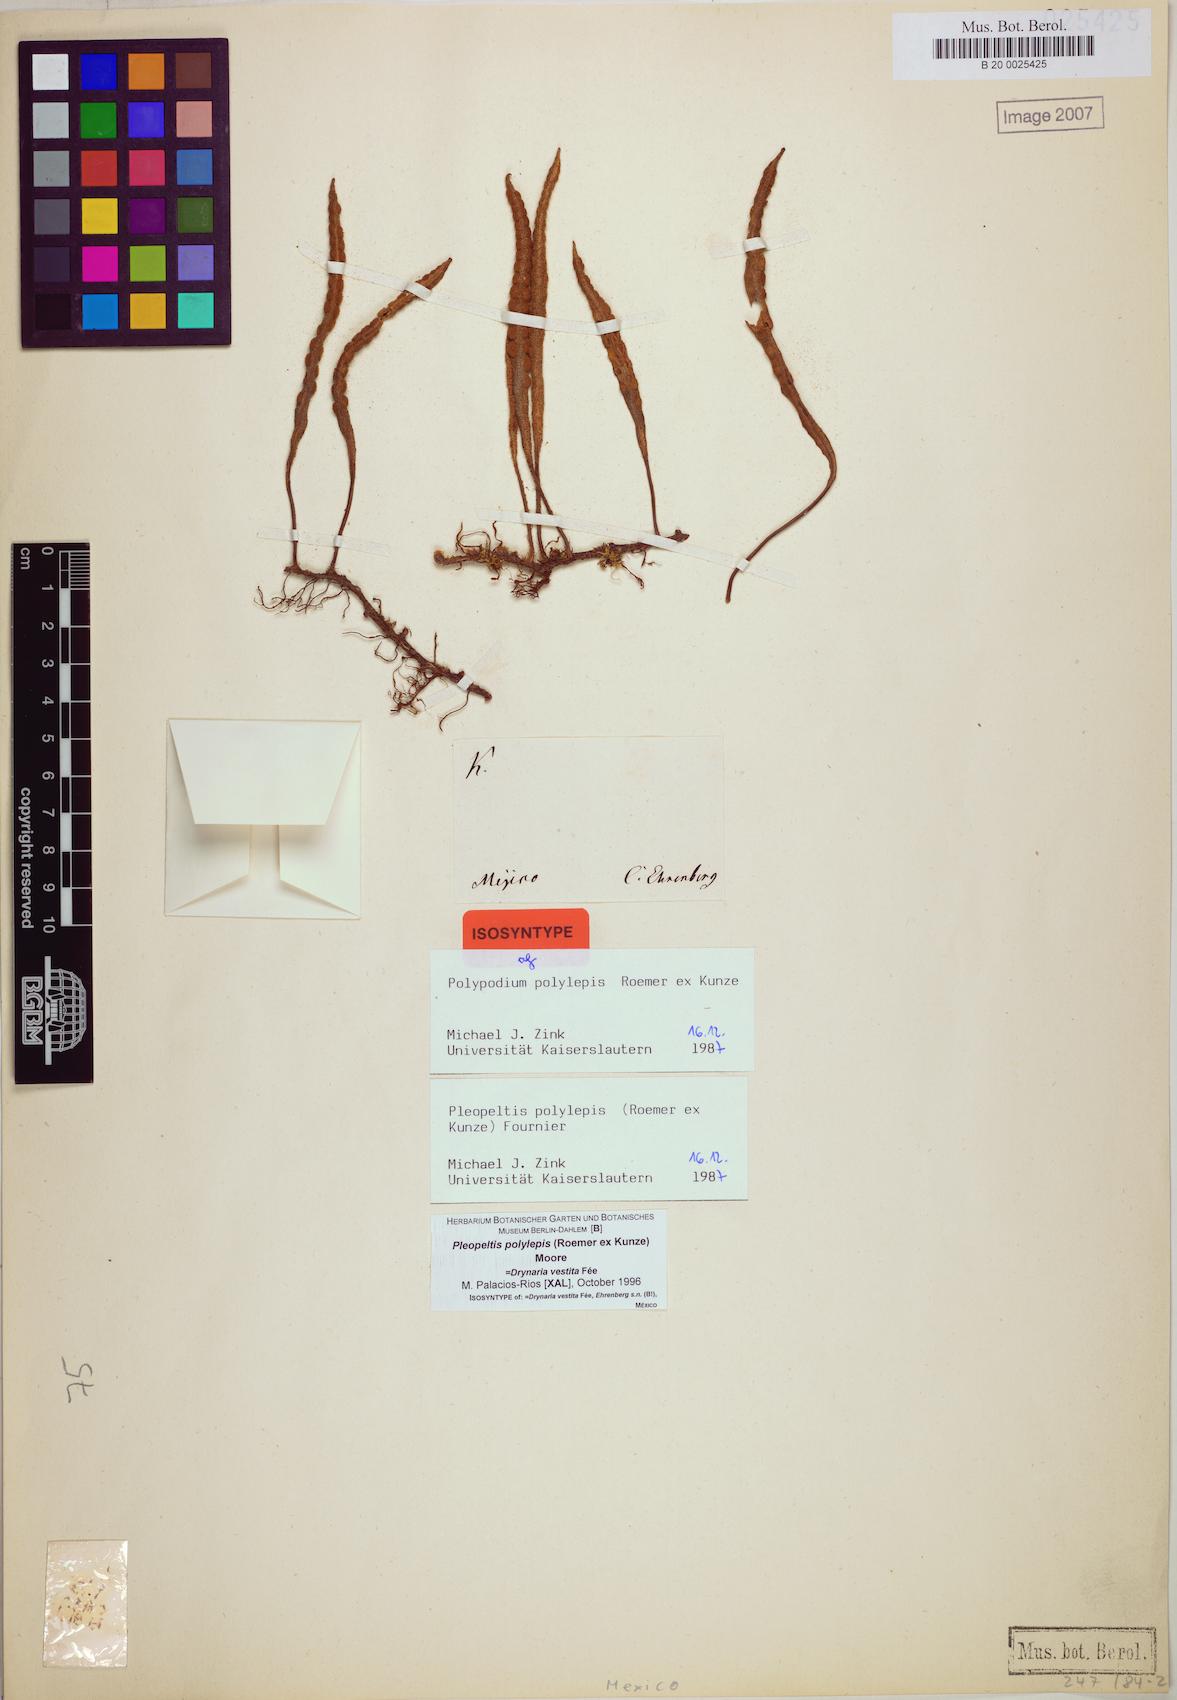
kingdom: Plantae
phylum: Tracheophyta
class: Polypodiopsida
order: Polypodiales
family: Polypodiaceae
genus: Pleopeltis
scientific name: Pleopeltis polylepis
